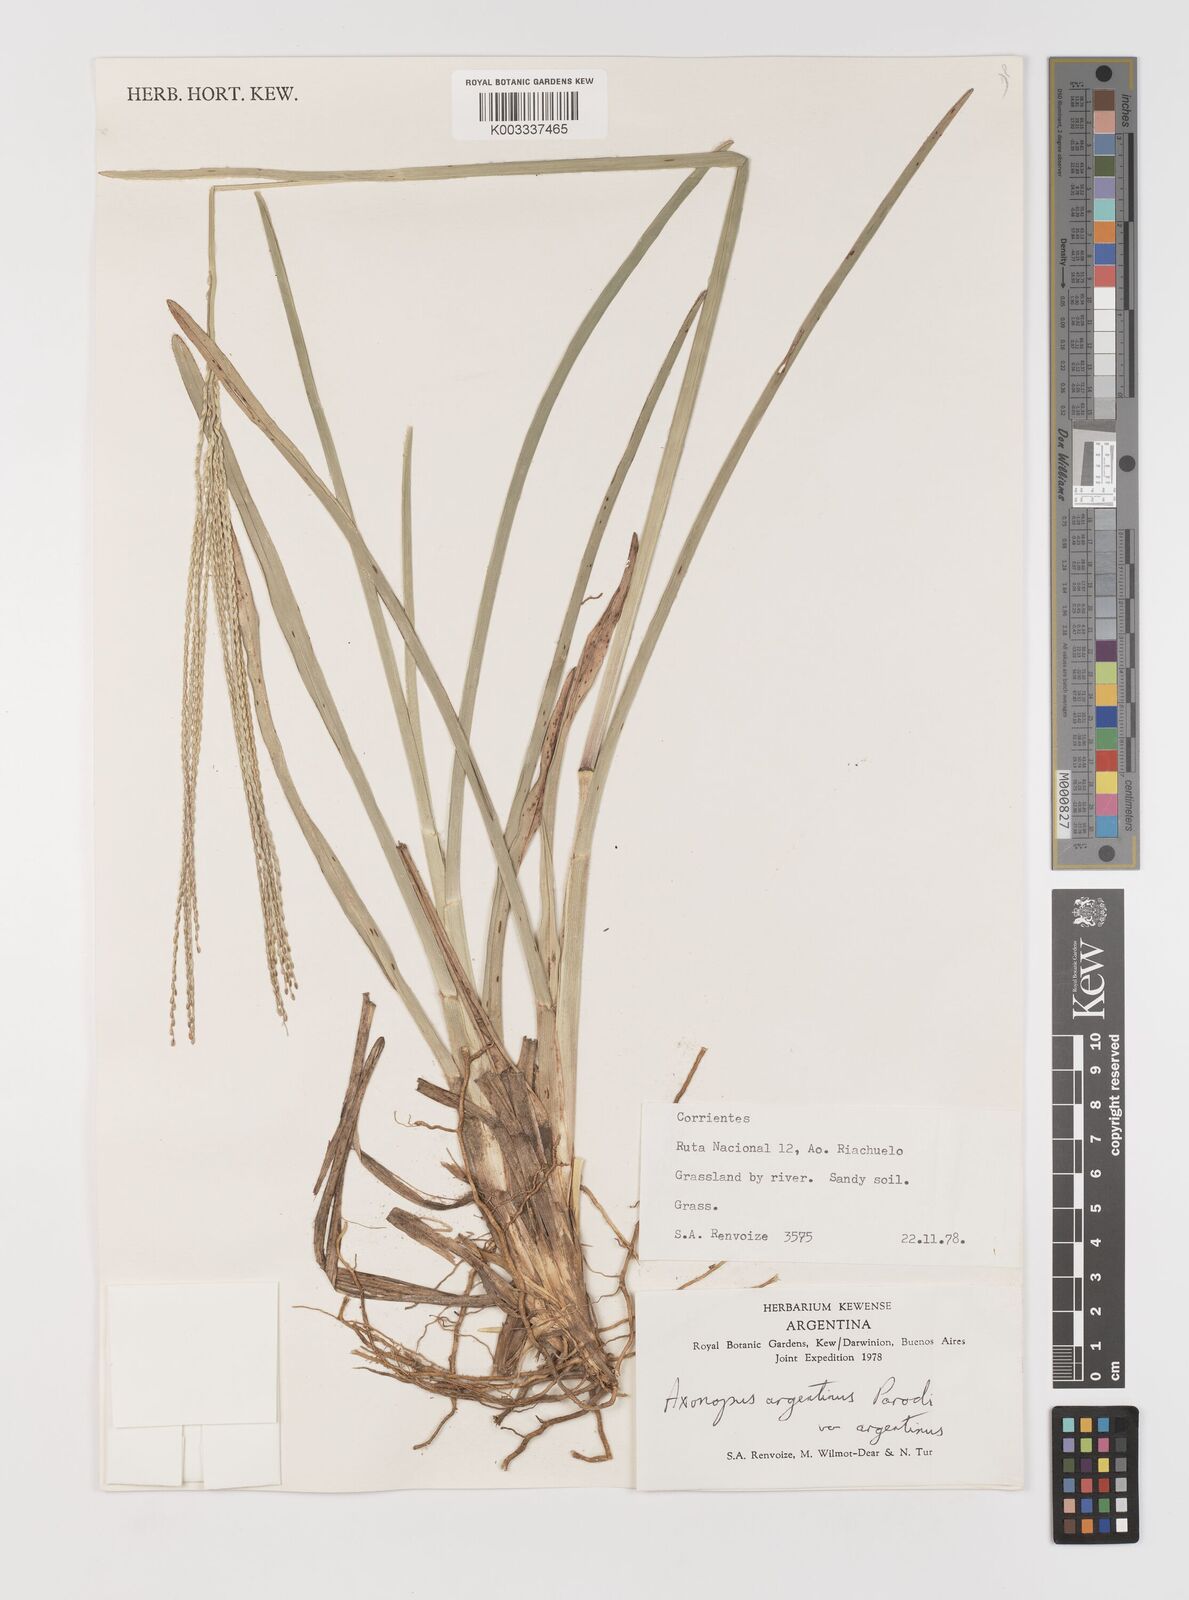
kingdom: Plantae
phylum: Tracheophyta
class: Liliopsida
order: Poales
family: Poaceae
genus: Axonopus
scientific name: Axonopus argentinus
